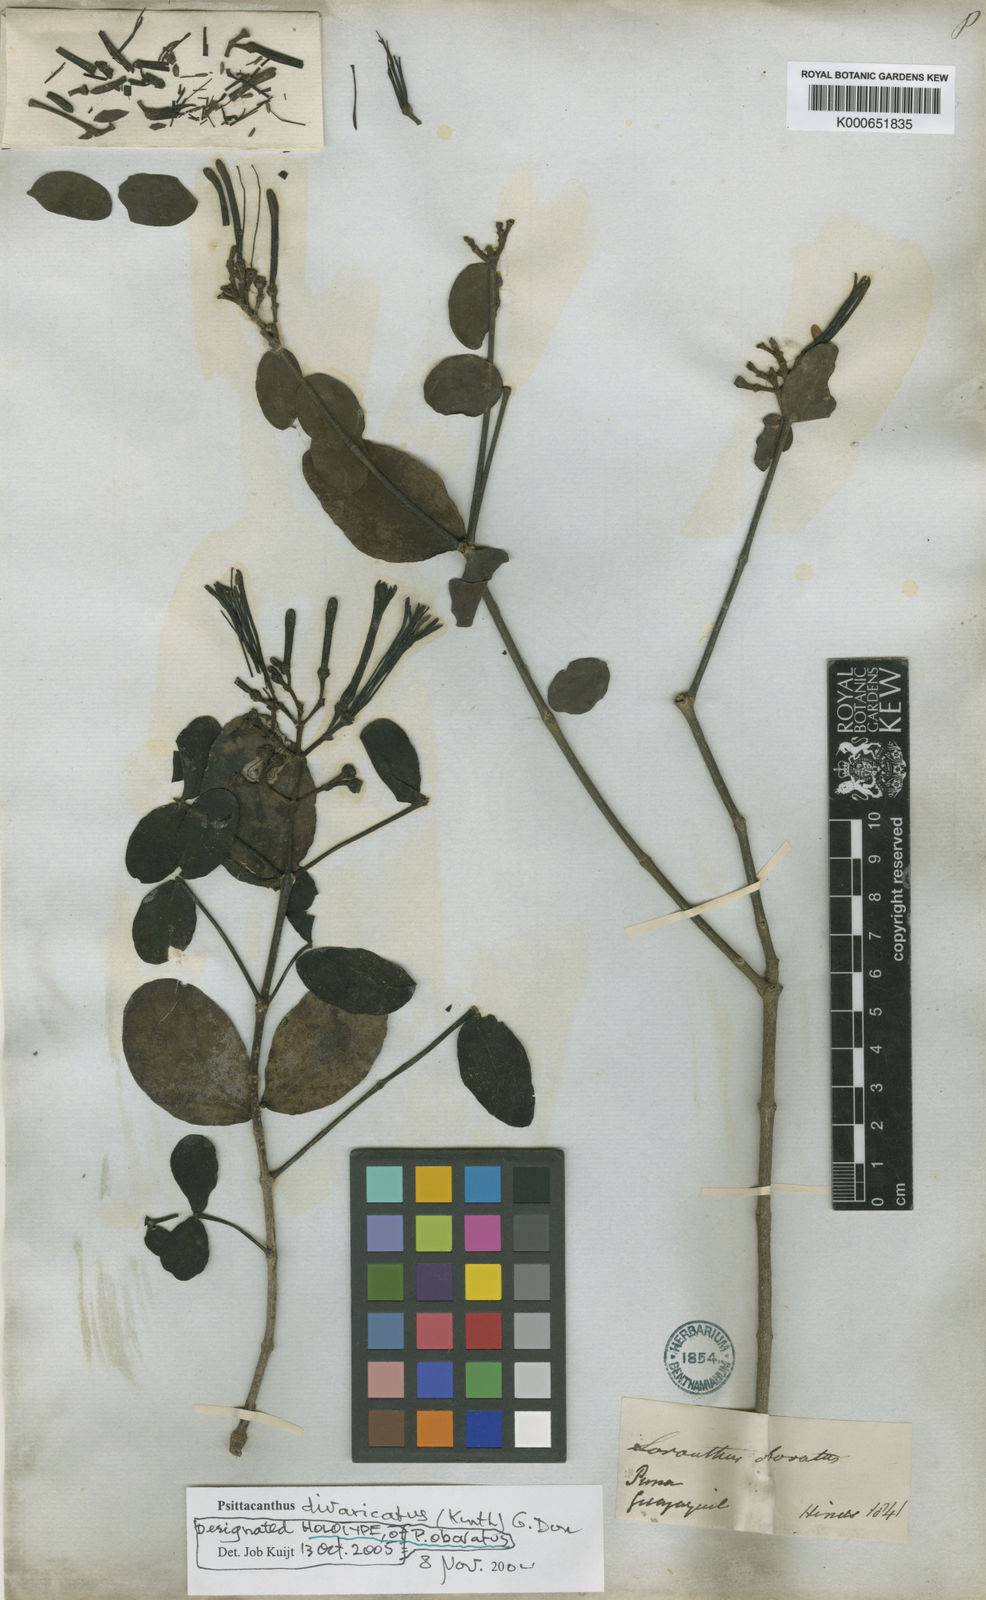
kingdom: Plantae
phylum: Tracheophyta
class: Magnoliopsida
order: Santalales
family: Loranthaceae
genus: Psittacanthus
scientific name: Psittacanthus divaricatus
